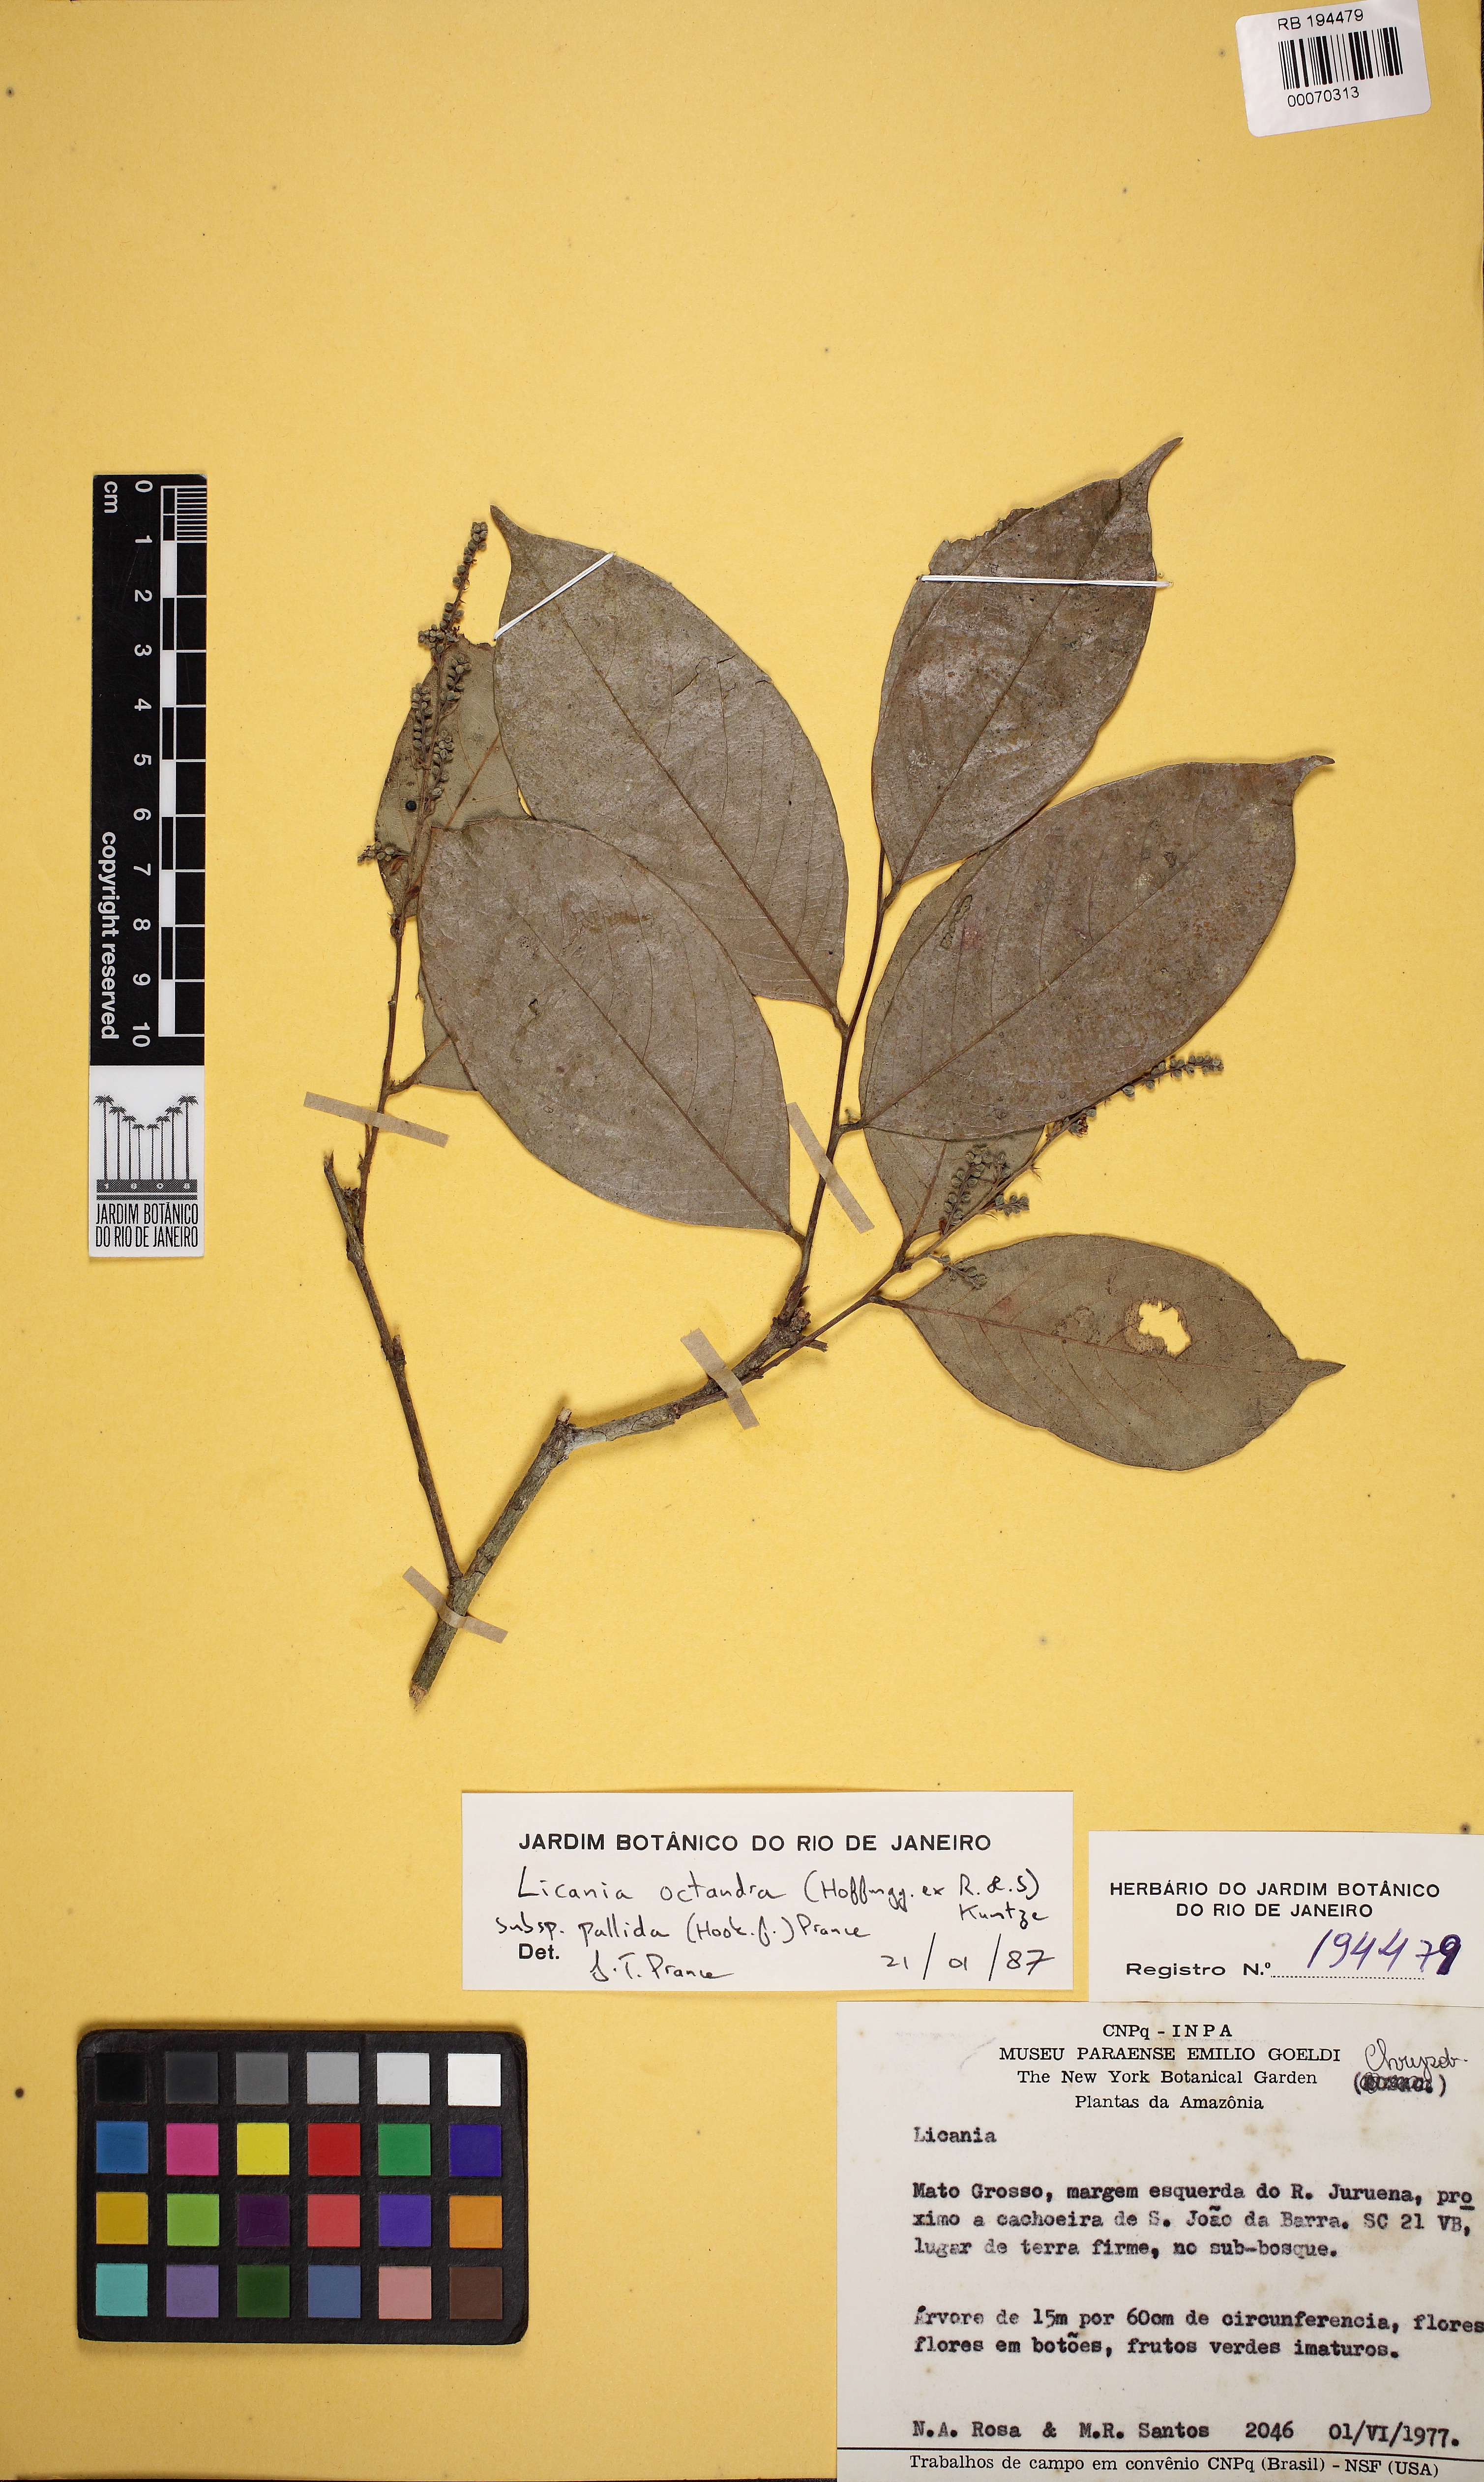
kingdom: Plantae
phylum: Tracheophyta
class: Magnoliopsida
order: Malpighiales
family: Chrysobalanaceae
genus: Leptobalanus
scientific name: Leptobalanus octandrus
